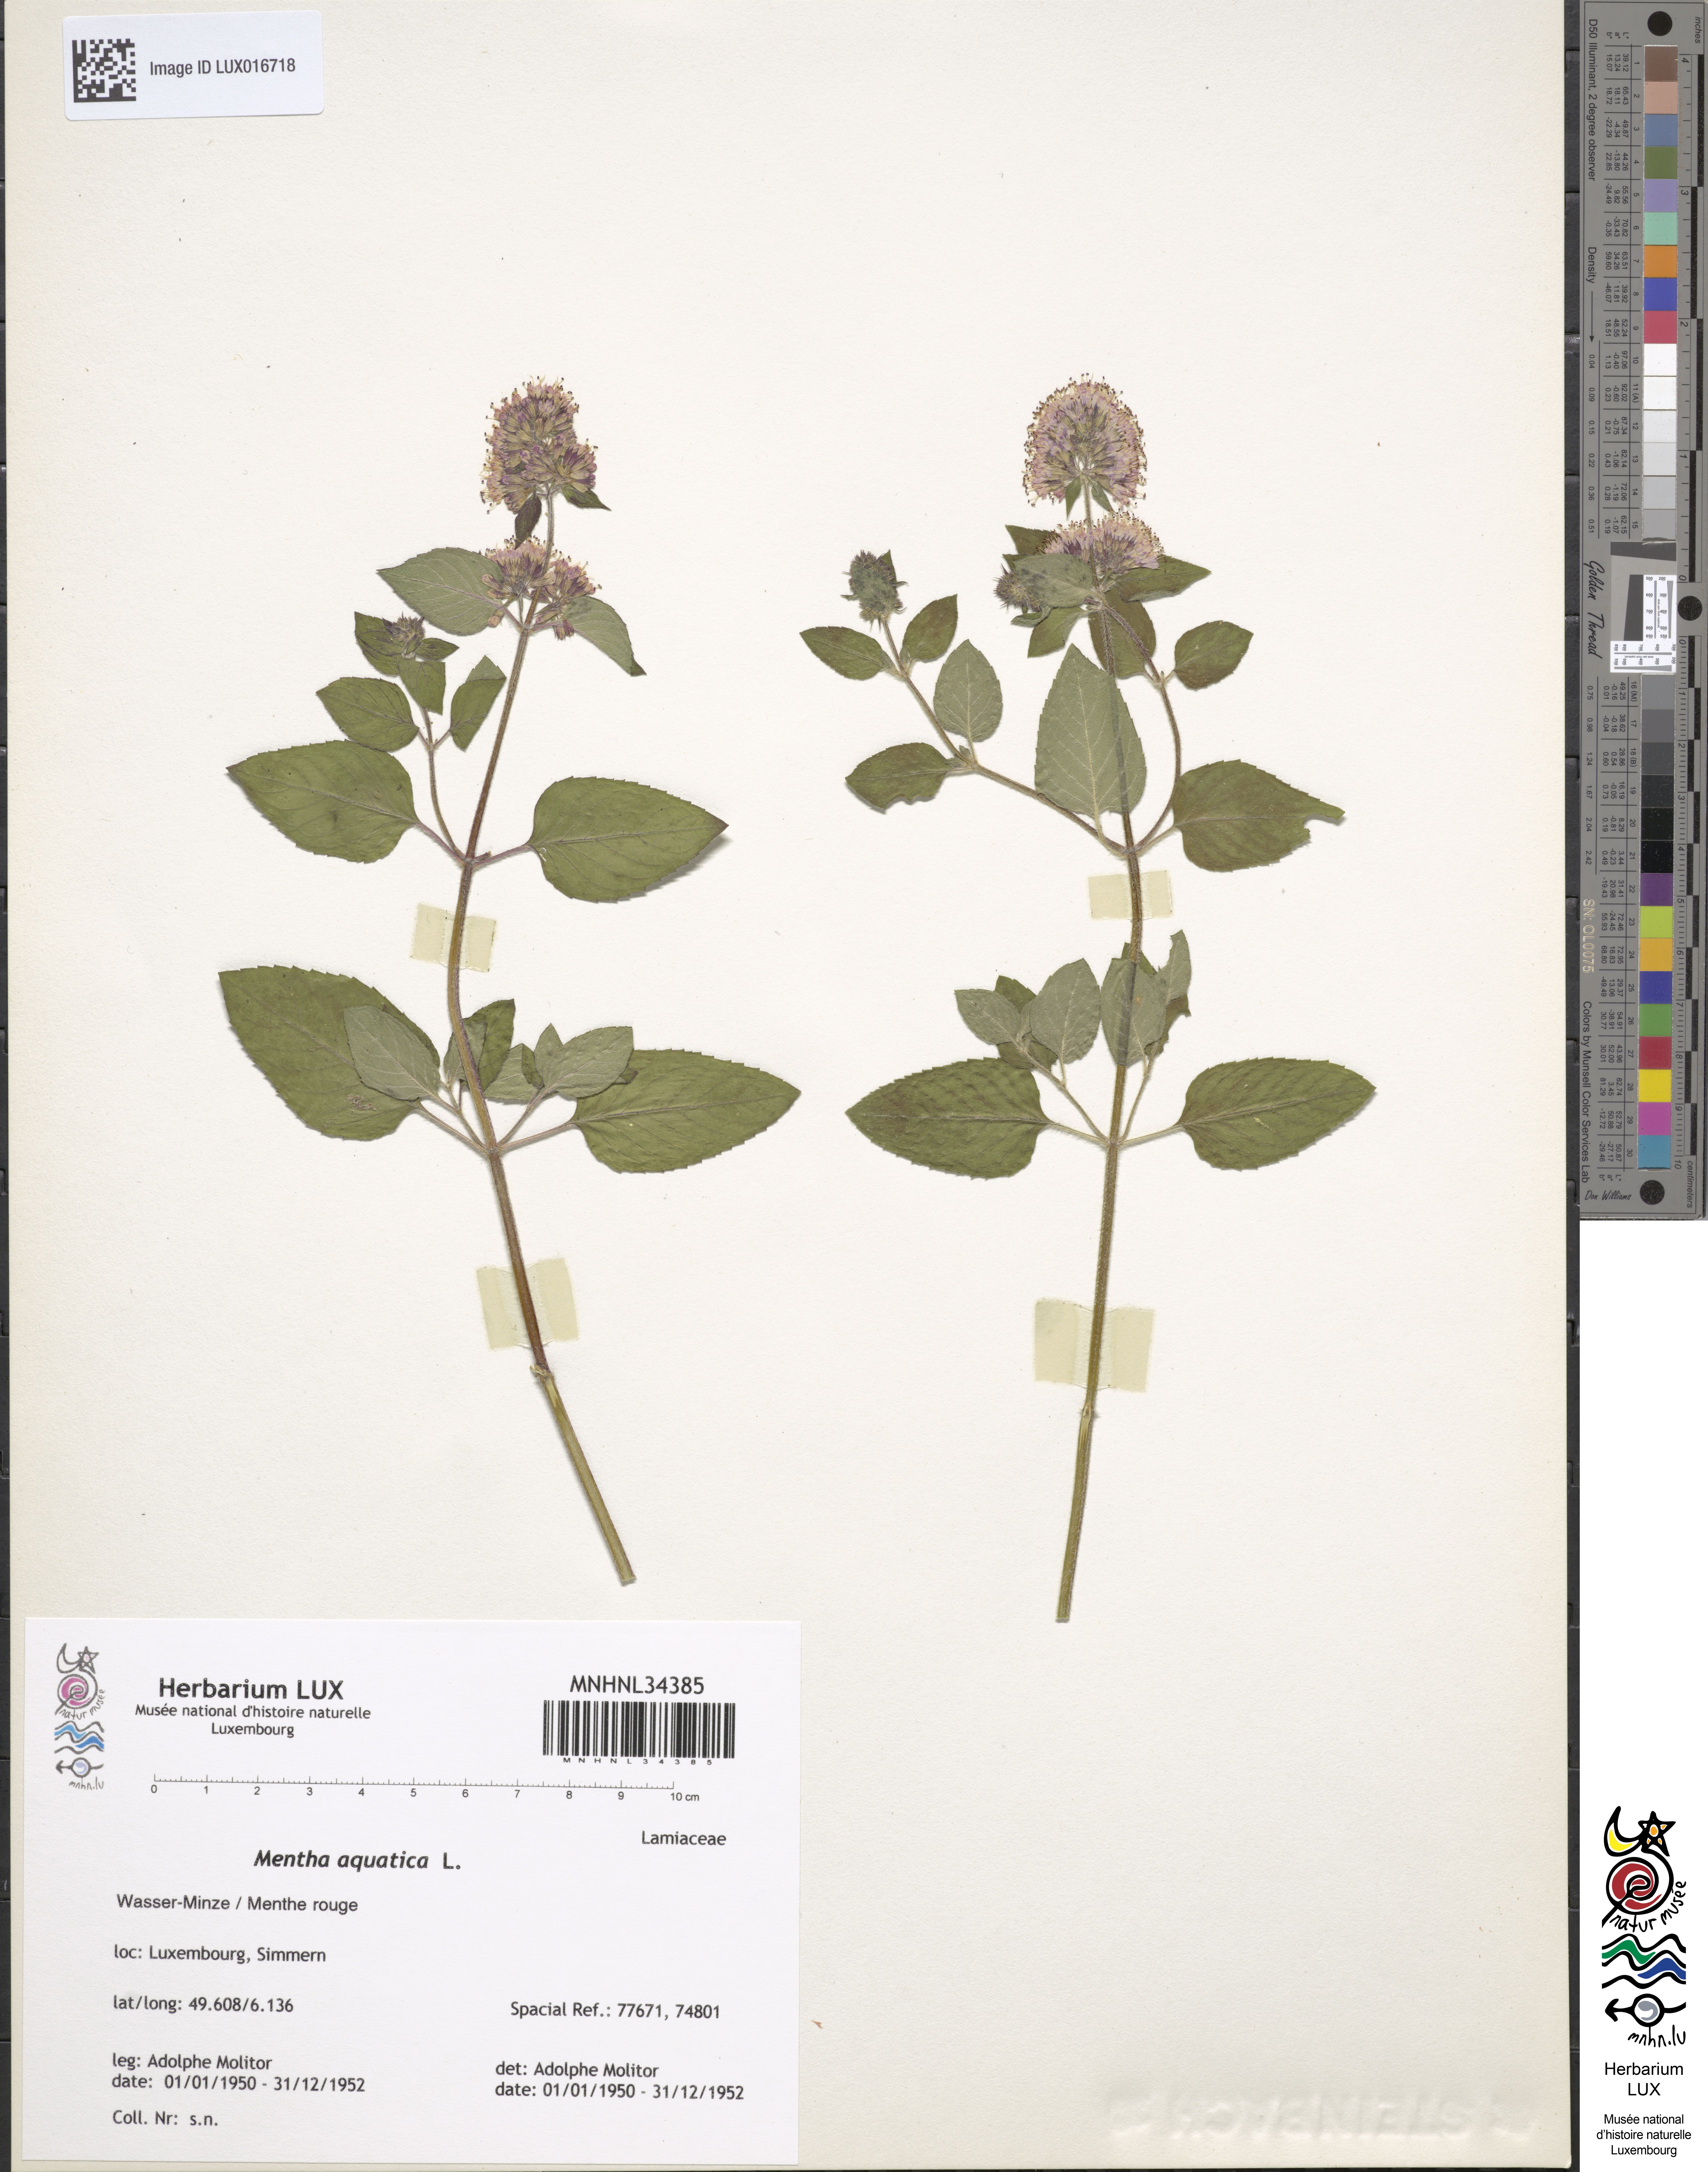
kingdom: Plantae
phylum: Tracheophyta
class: Magnoliopsida
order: Lamiales
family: Lamiaceae
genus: Mentha
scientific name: Mentha aquatica
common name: Water mint
